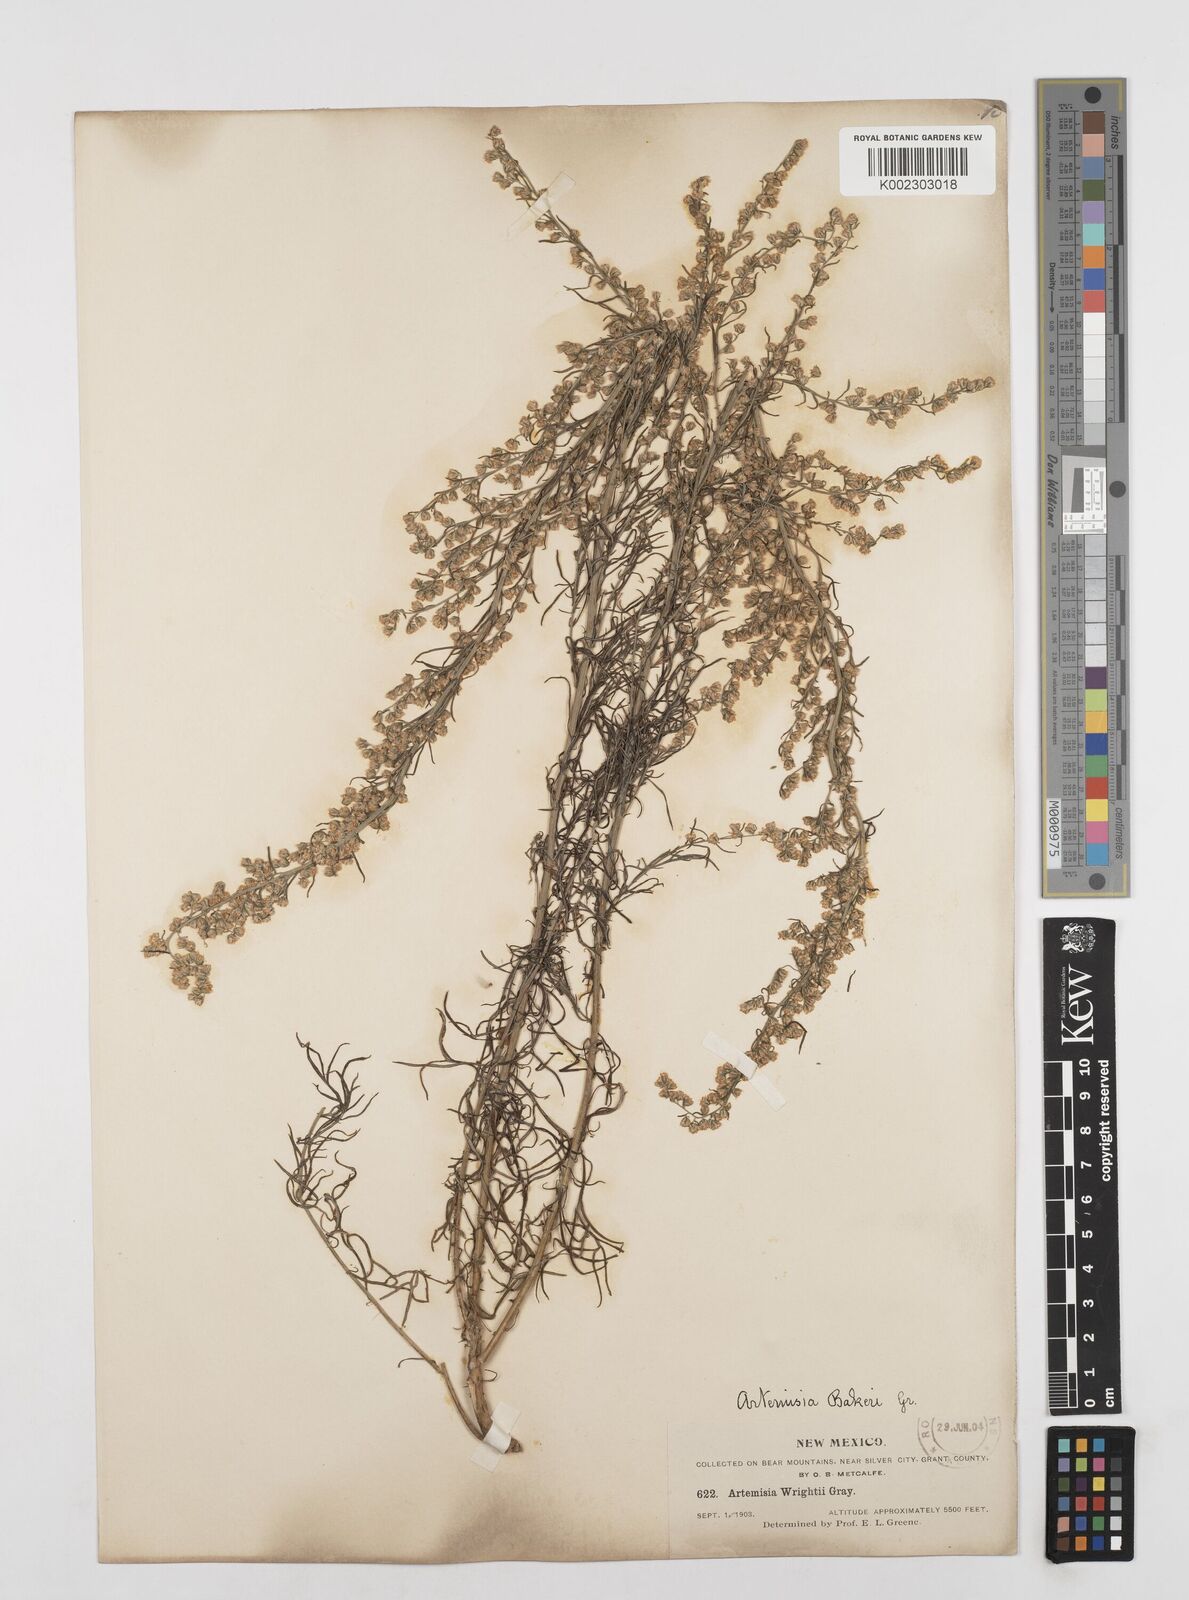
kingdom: Plantae
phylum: Tracheophyta
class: Magnoliopsida
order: Asterales
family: Asteraceae
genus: Artemisia
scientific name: Artemisia michauxiana
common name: Lemon sagewort
